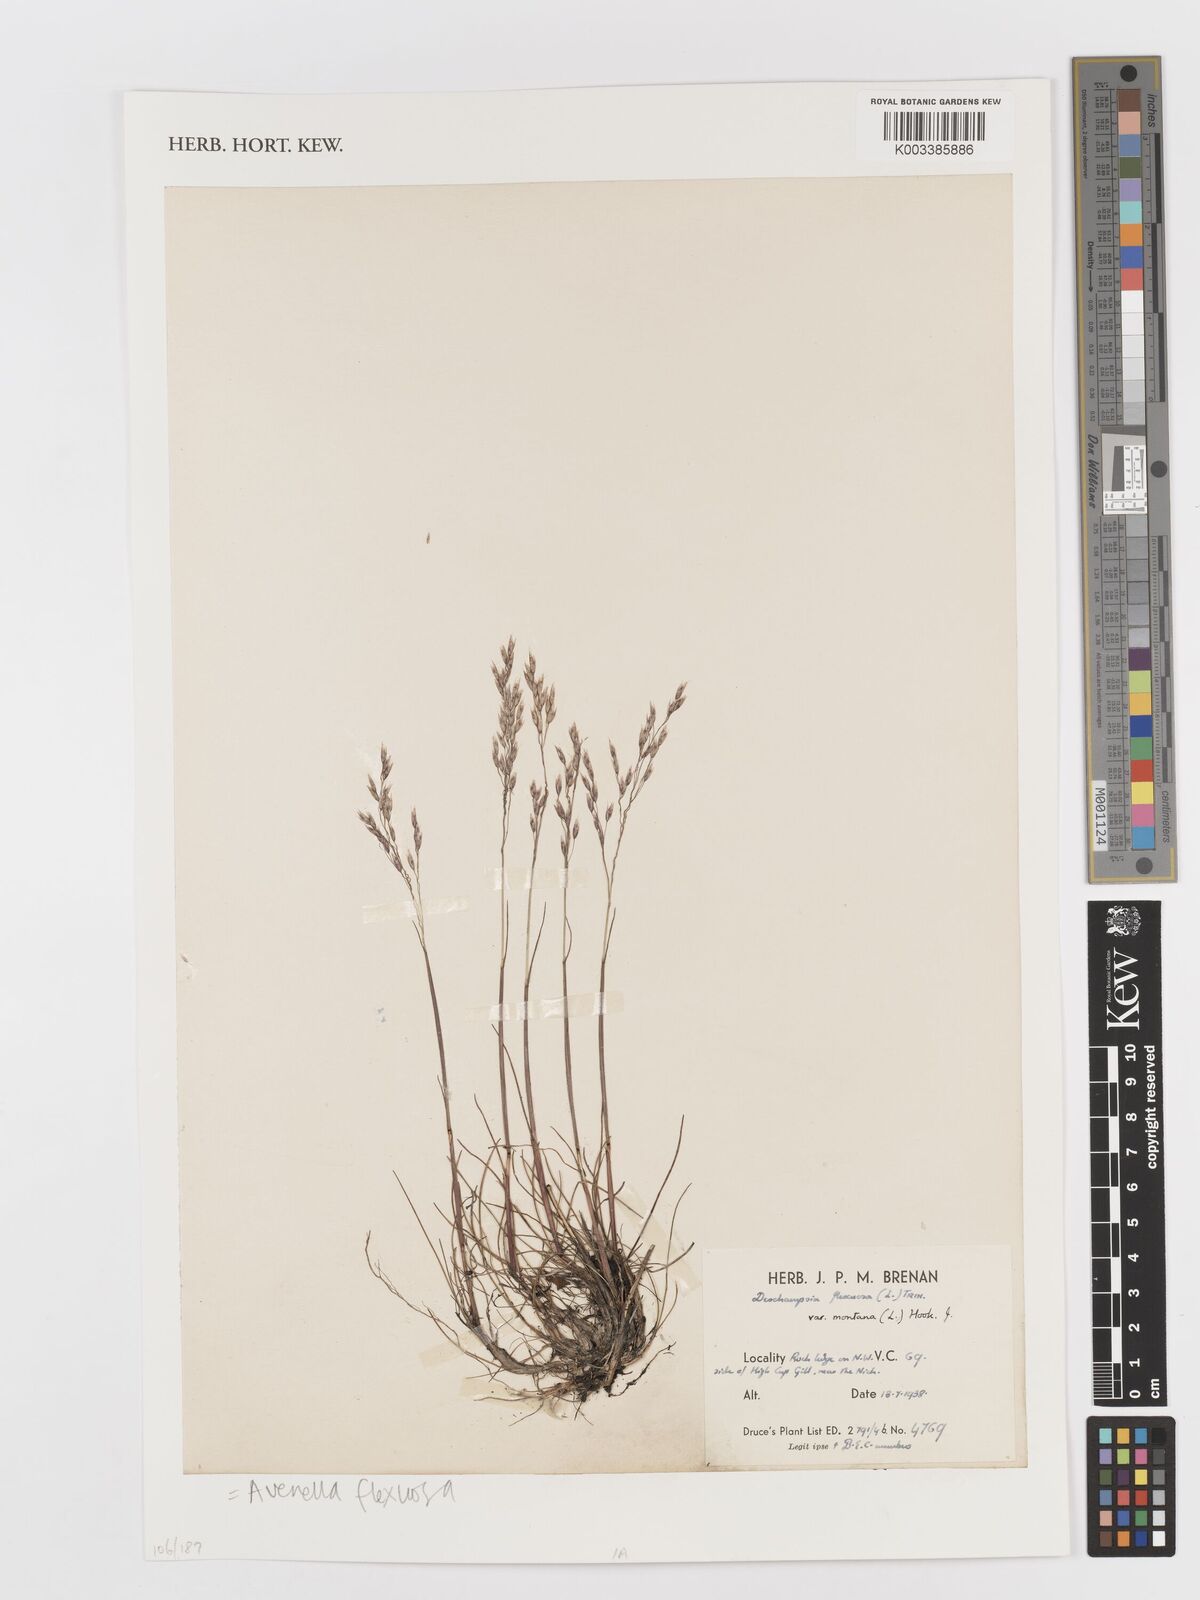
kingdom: Plantae
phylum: Tracheophyta
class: Liliopsida
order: Poales
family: Poaceae
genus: Avenella
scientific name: Avenella flexuosa
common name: Wavy hairgrass
